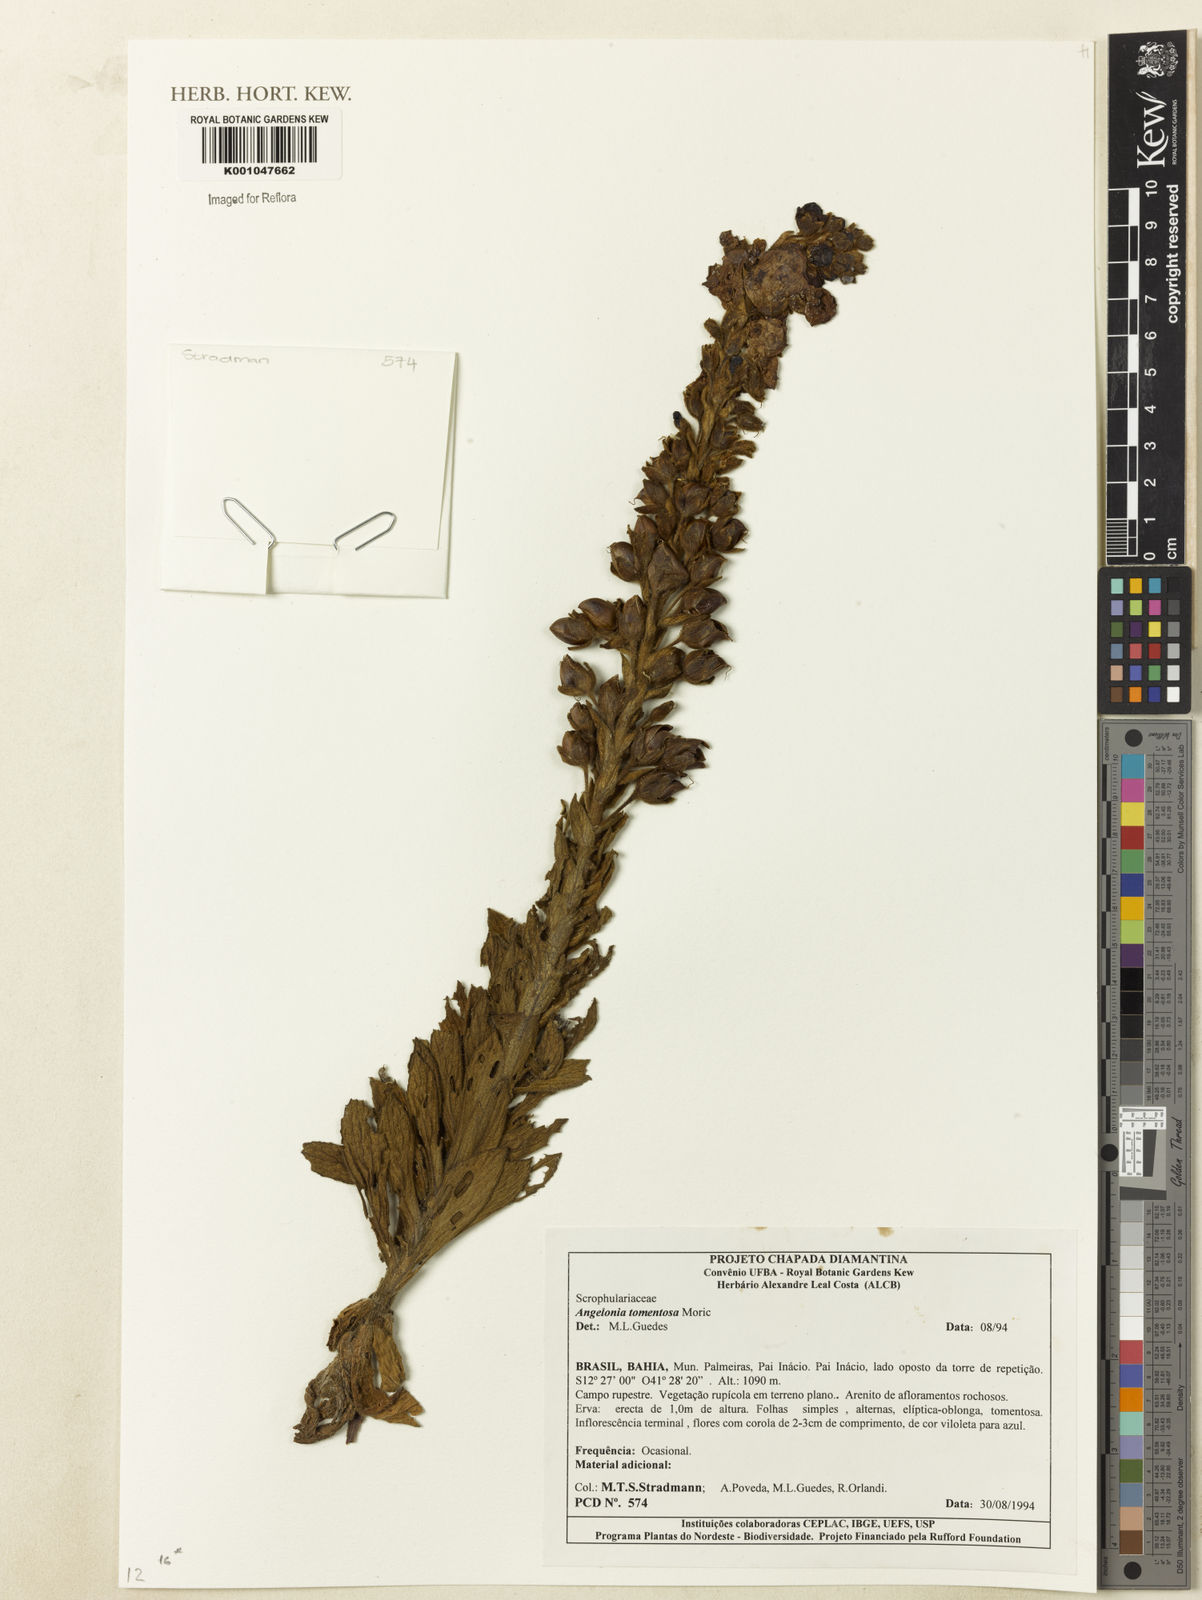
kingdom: Plantae
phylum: Tracheophyta
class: Magnoliopsida
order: Lamiales
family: Plantaginaceae
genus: Angelonia
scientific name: Angelonia tomentosa
